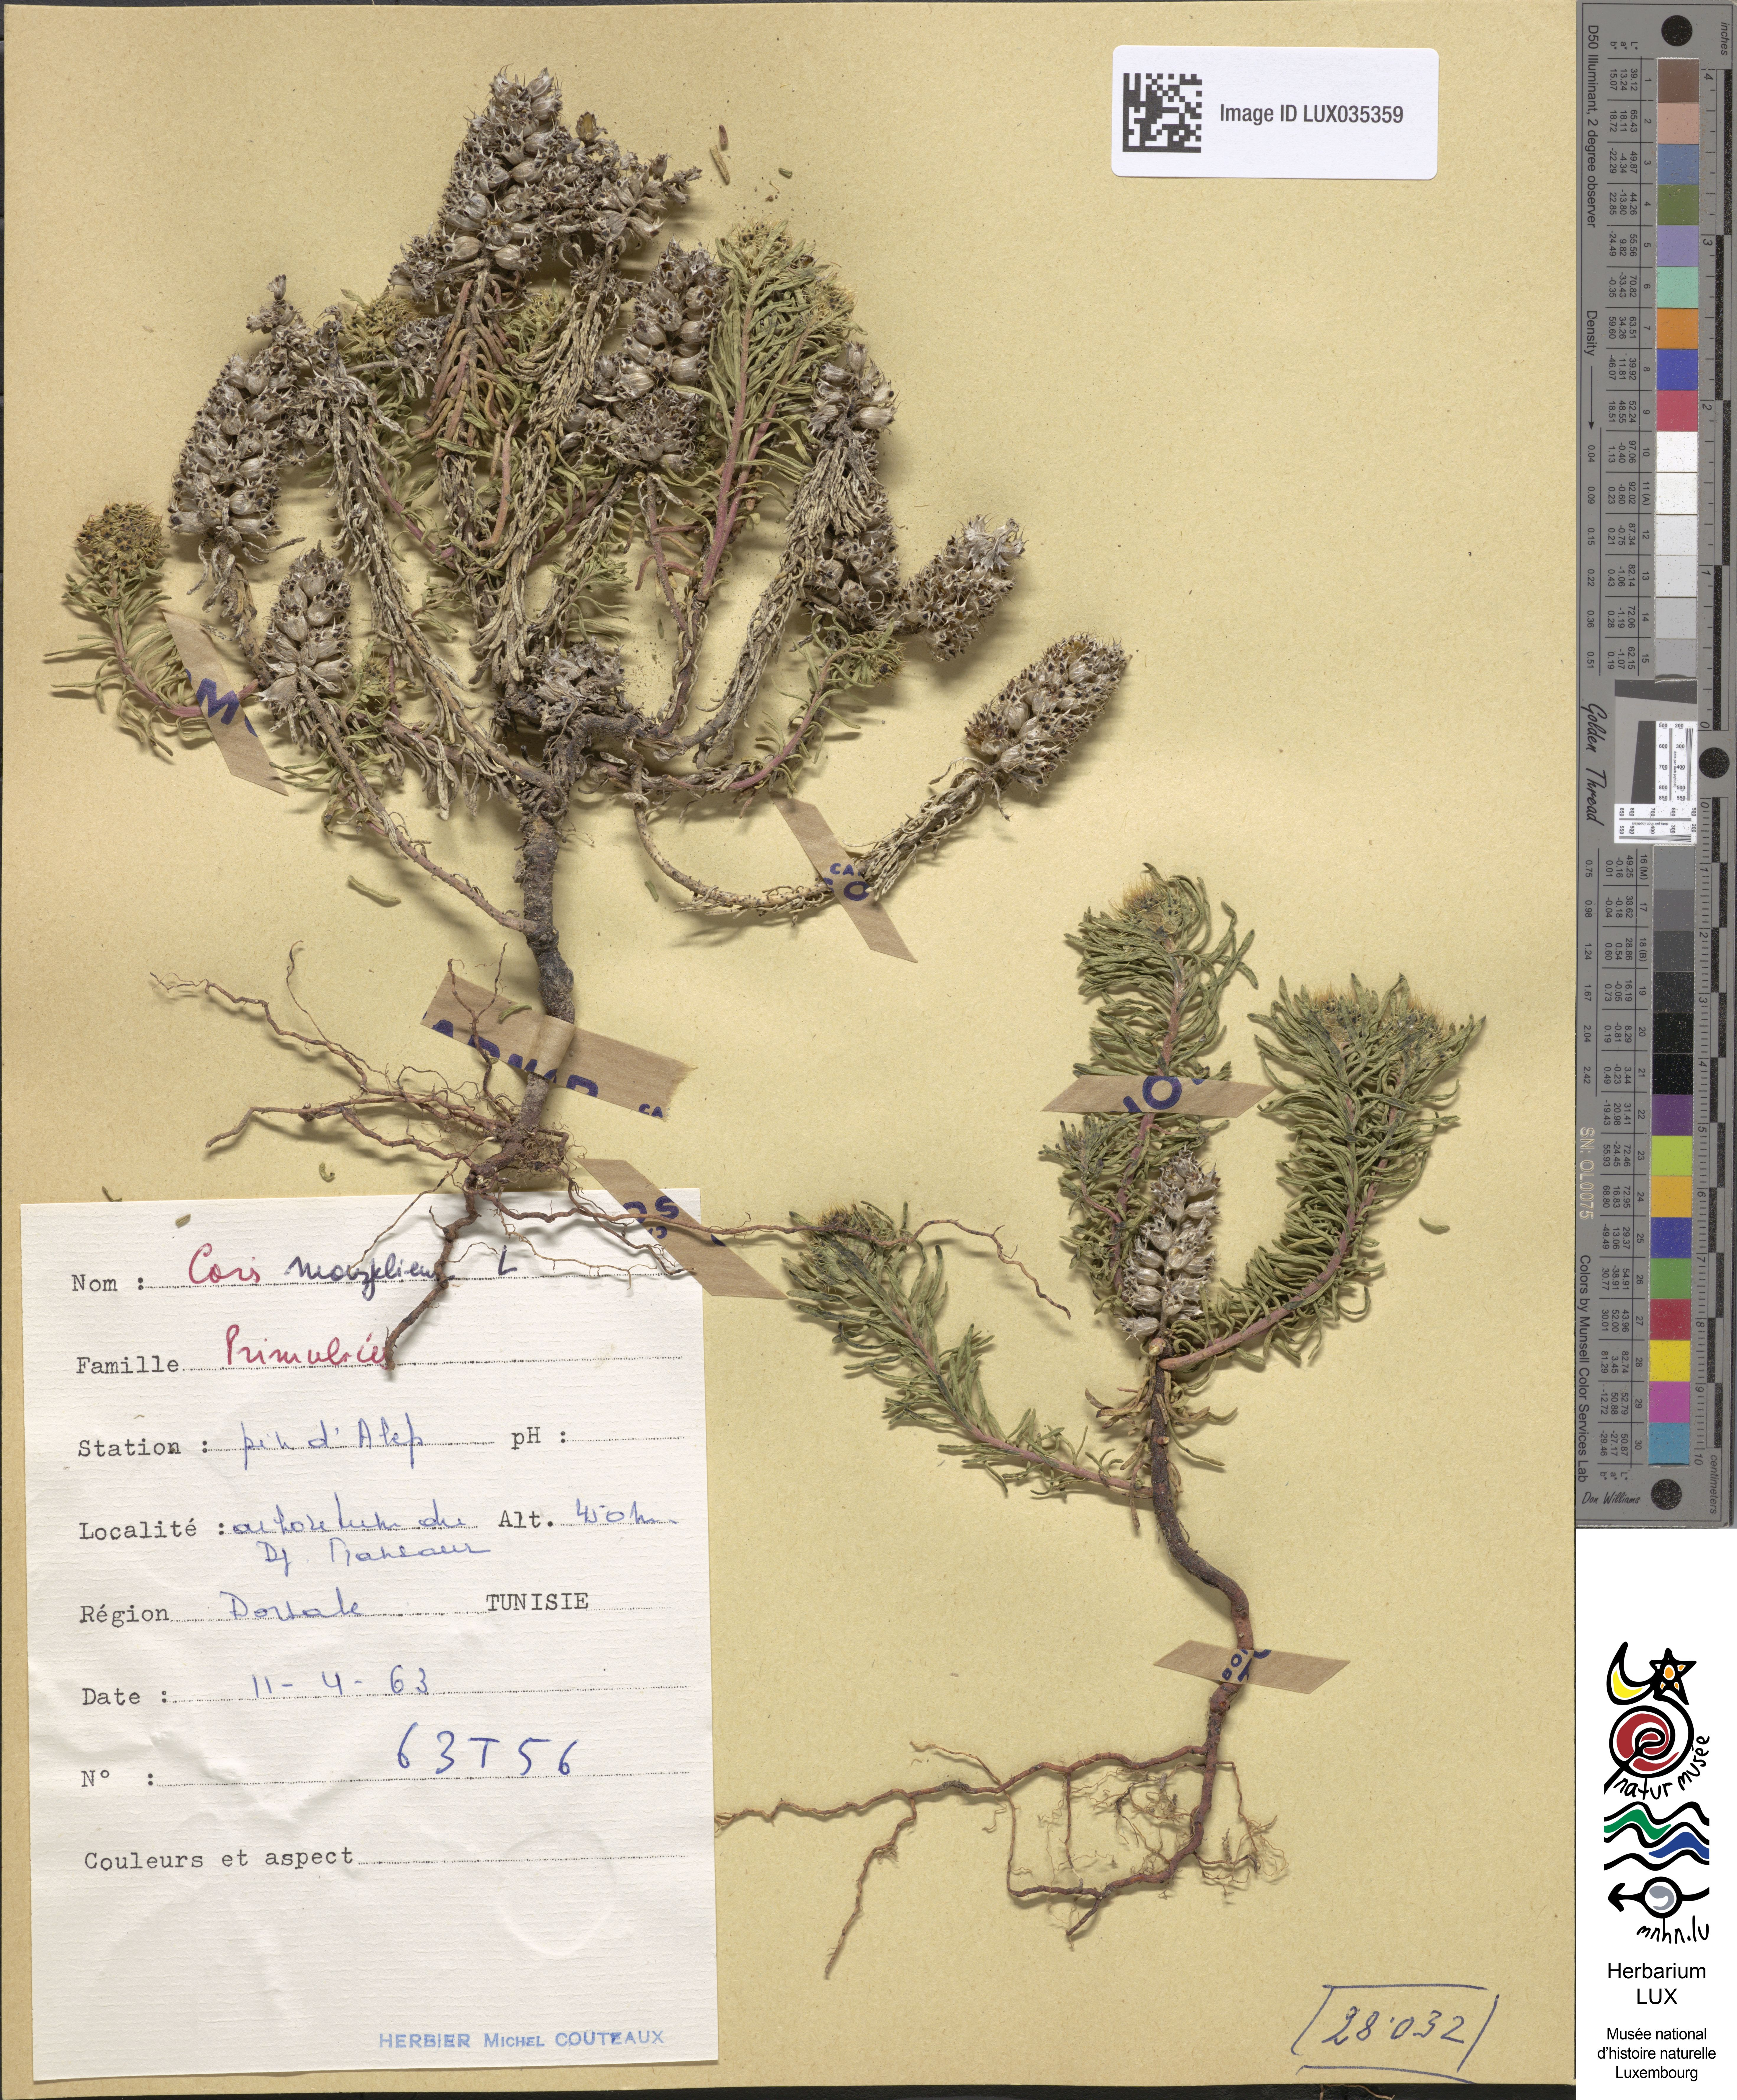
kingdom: Plantae
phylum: Tracheophyta
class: Magnoliopsida
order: Ericales
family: Primulaceae
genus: Coris
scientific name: Coris monspeliensis
